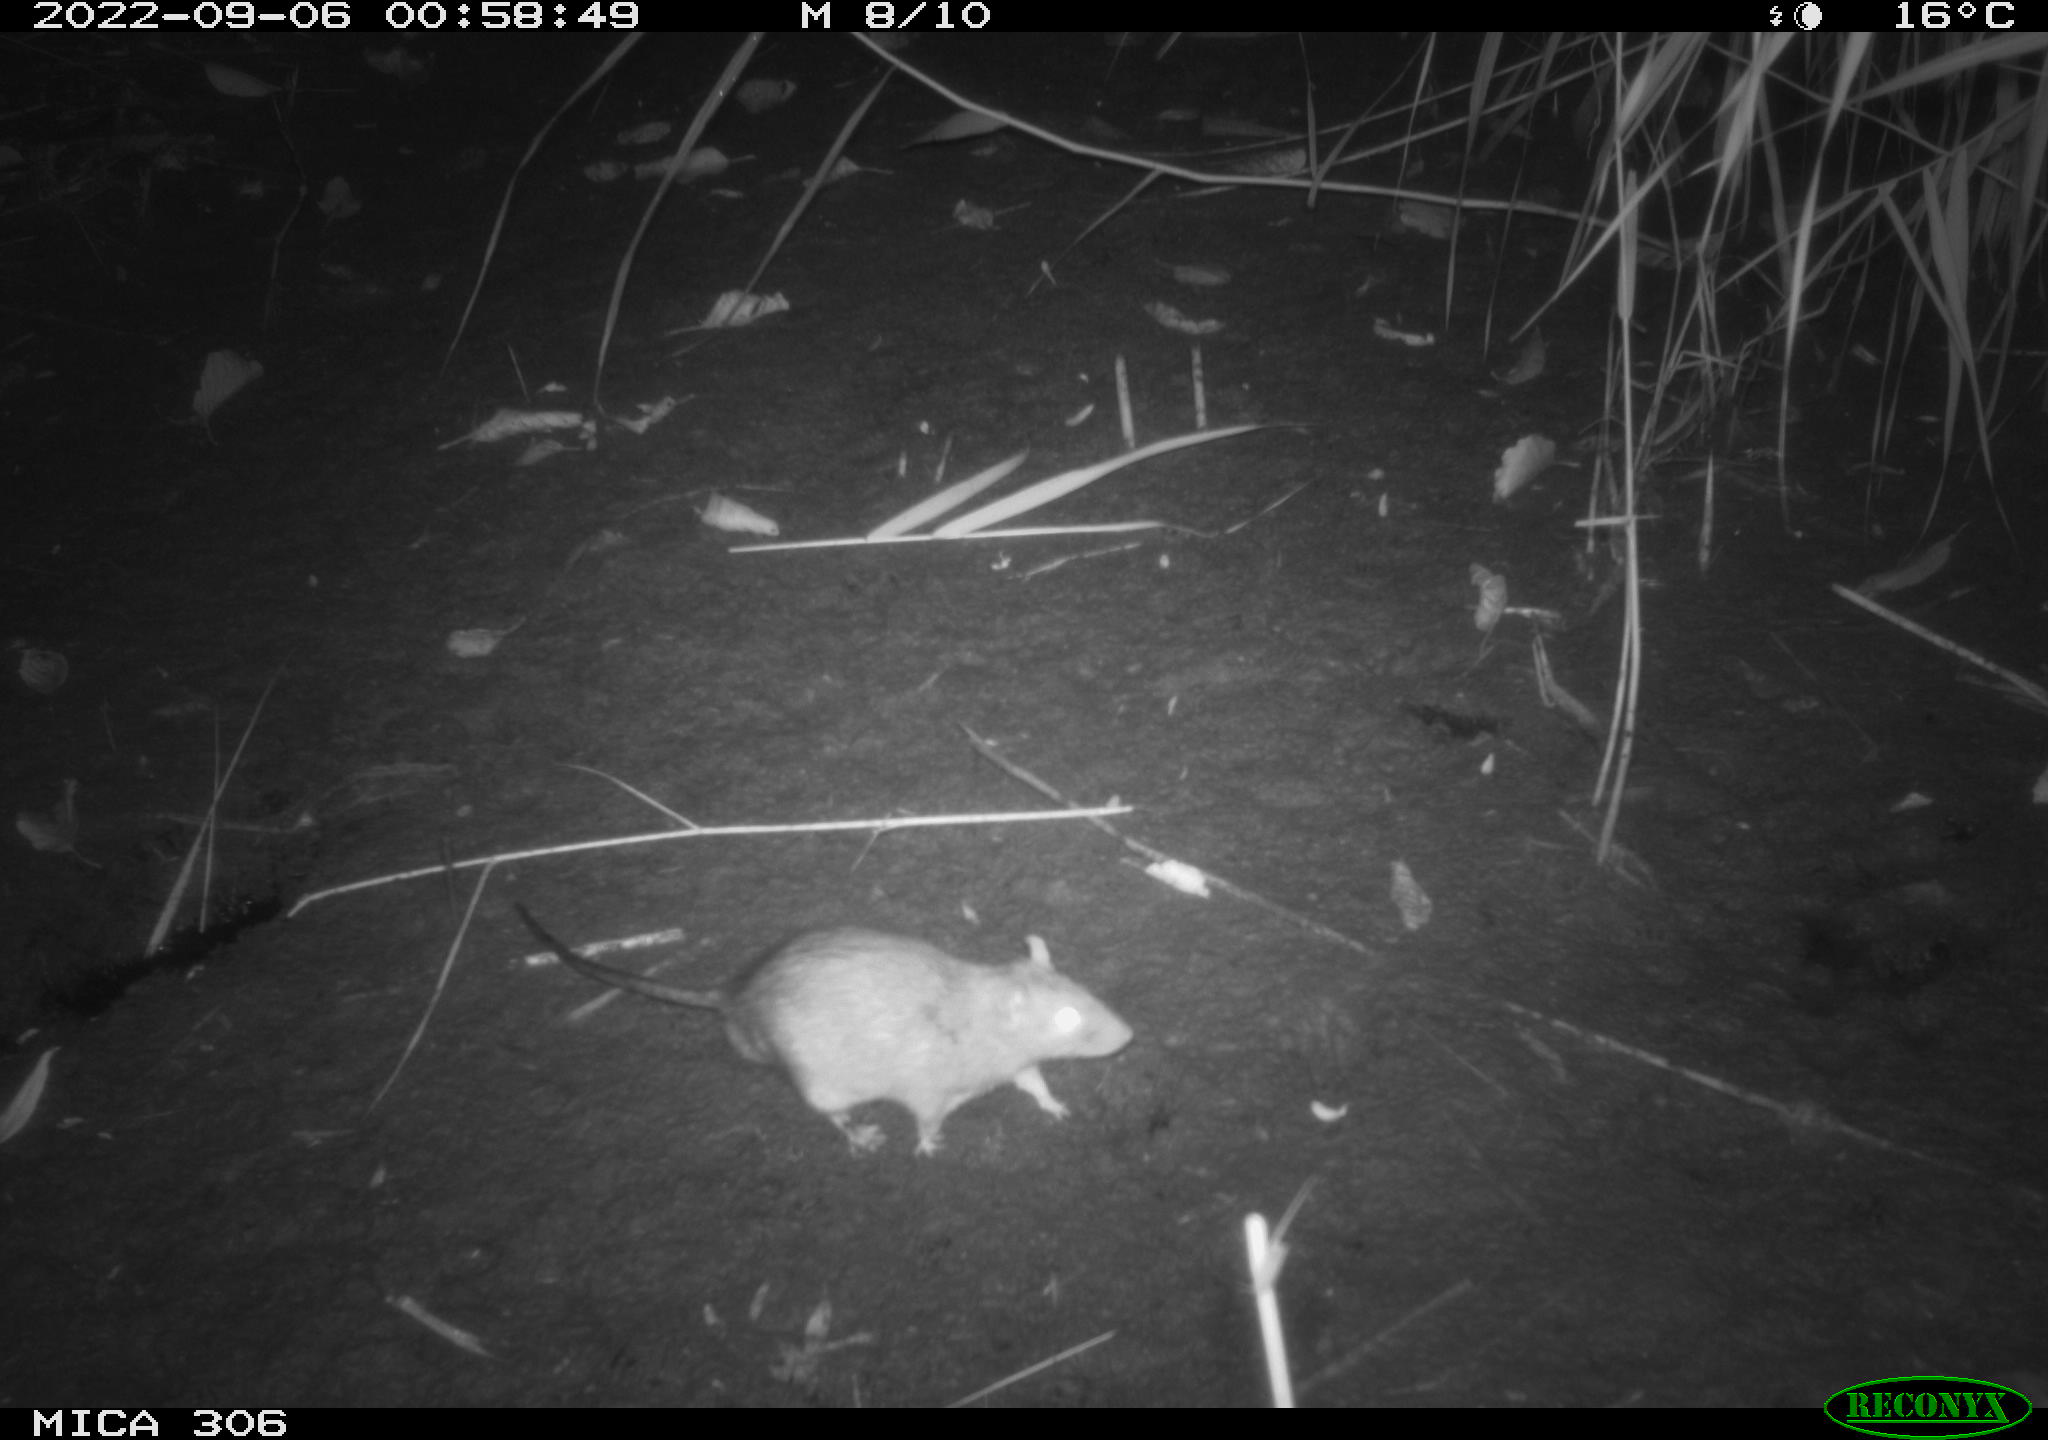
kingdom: Animalia
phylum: Chordata
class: Mammalia
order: Rodentia
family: Muridae
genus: Rattus
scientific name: Rattus norvegicus
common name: Brown rat
